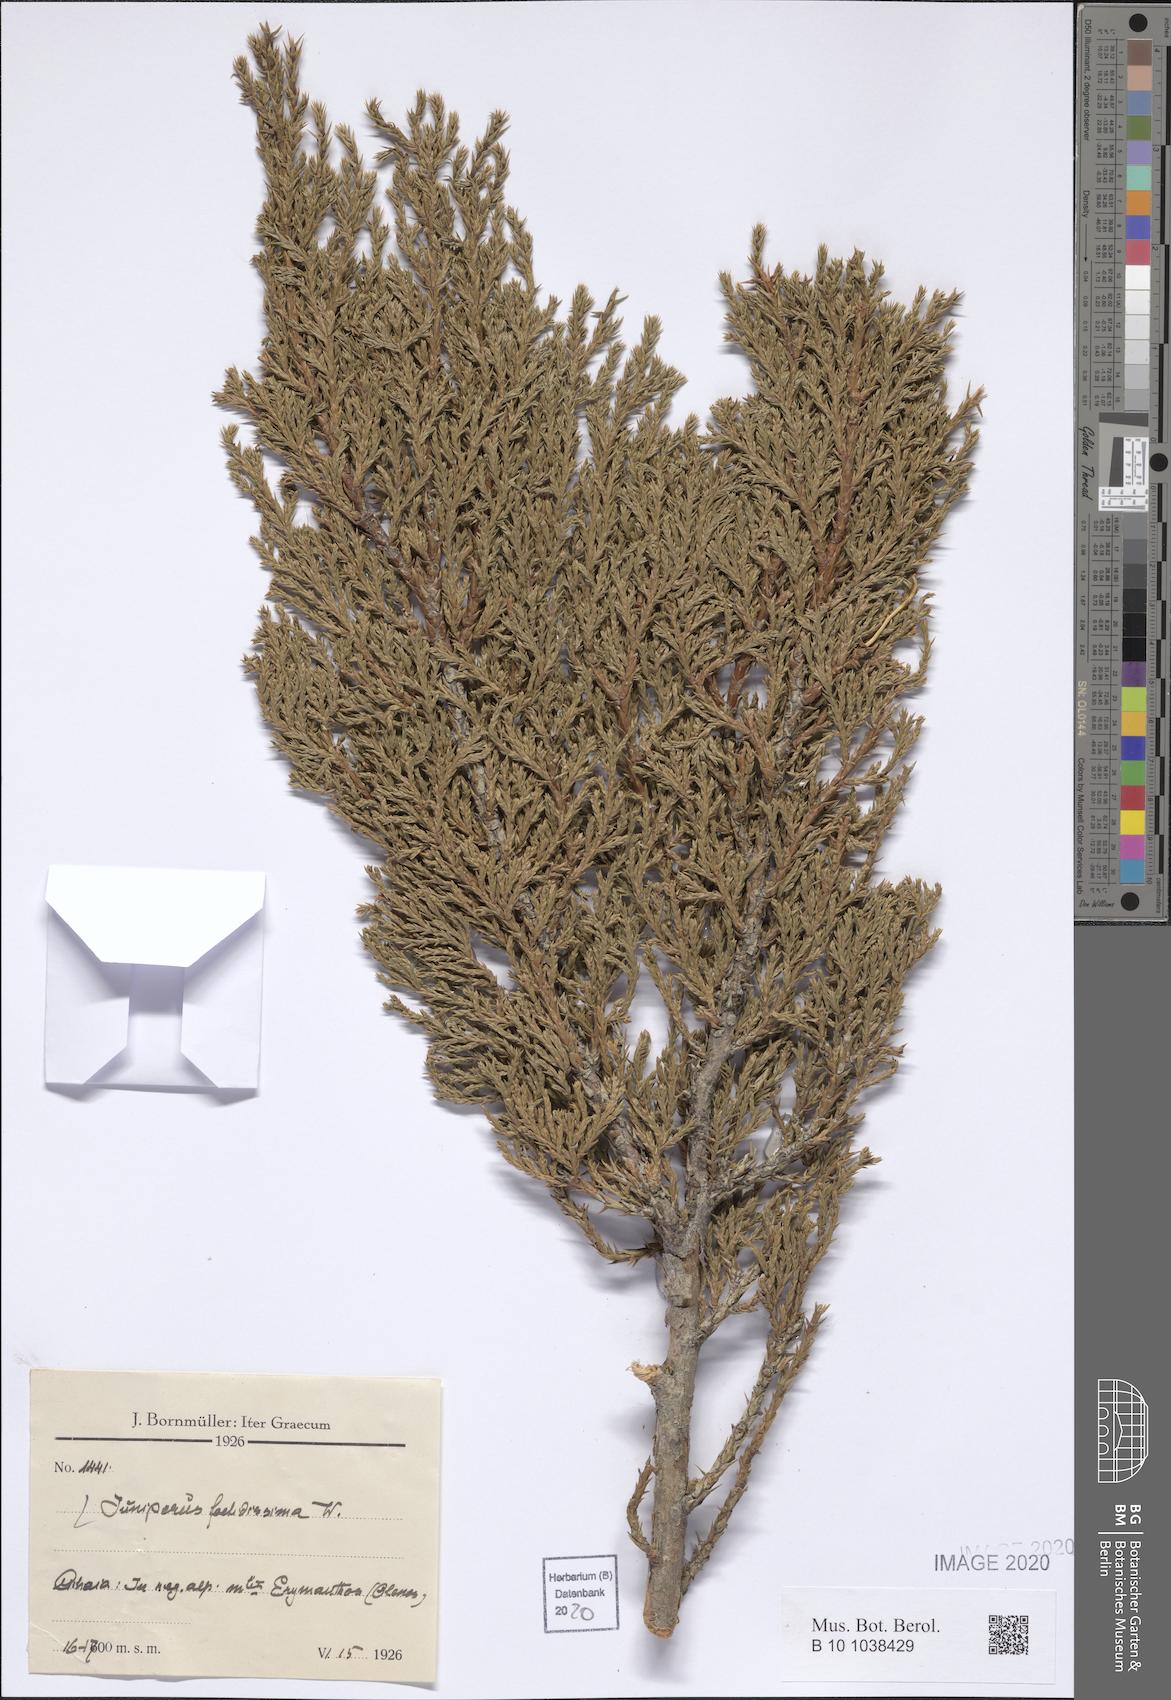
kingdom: Plantae
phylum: Tracheophyta
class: Pinopsida
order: Pinales
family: Cupressaceae
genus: Juniperus
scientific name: Juniperus foetidissima
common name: Stinking juniper
